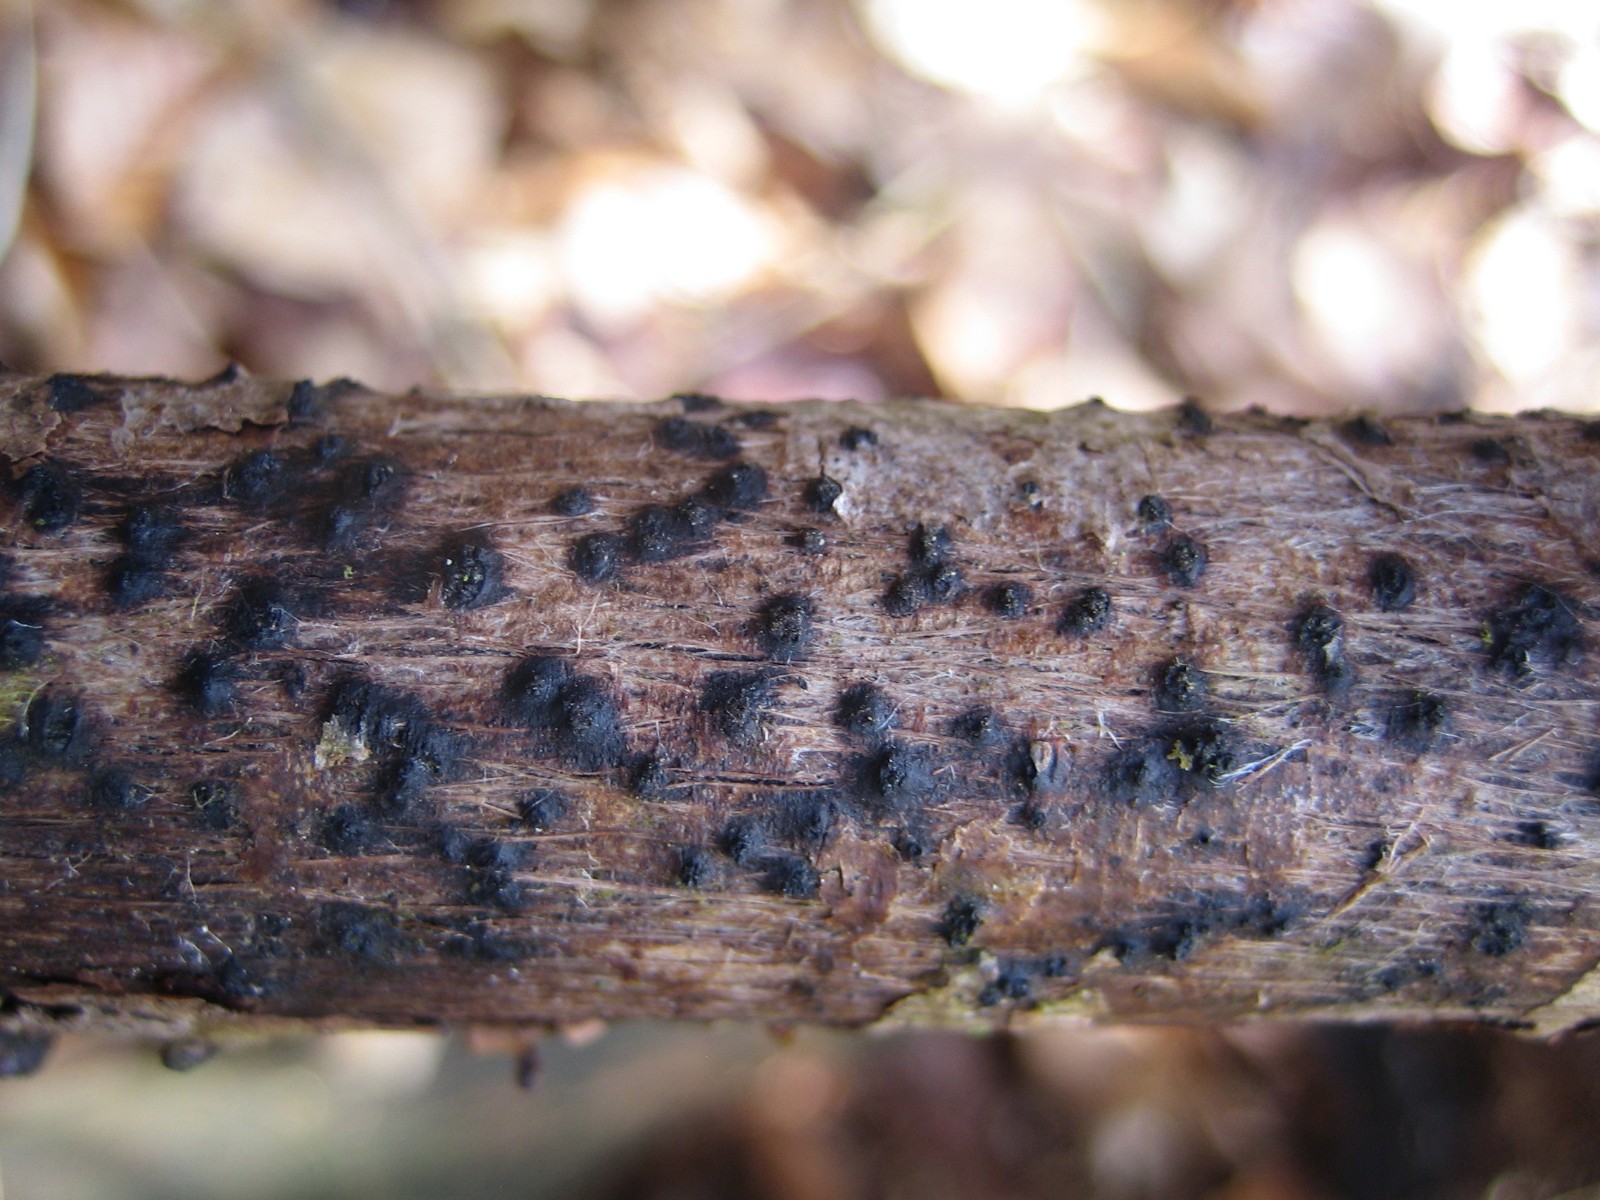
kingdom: Fungi
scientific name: Fungi
